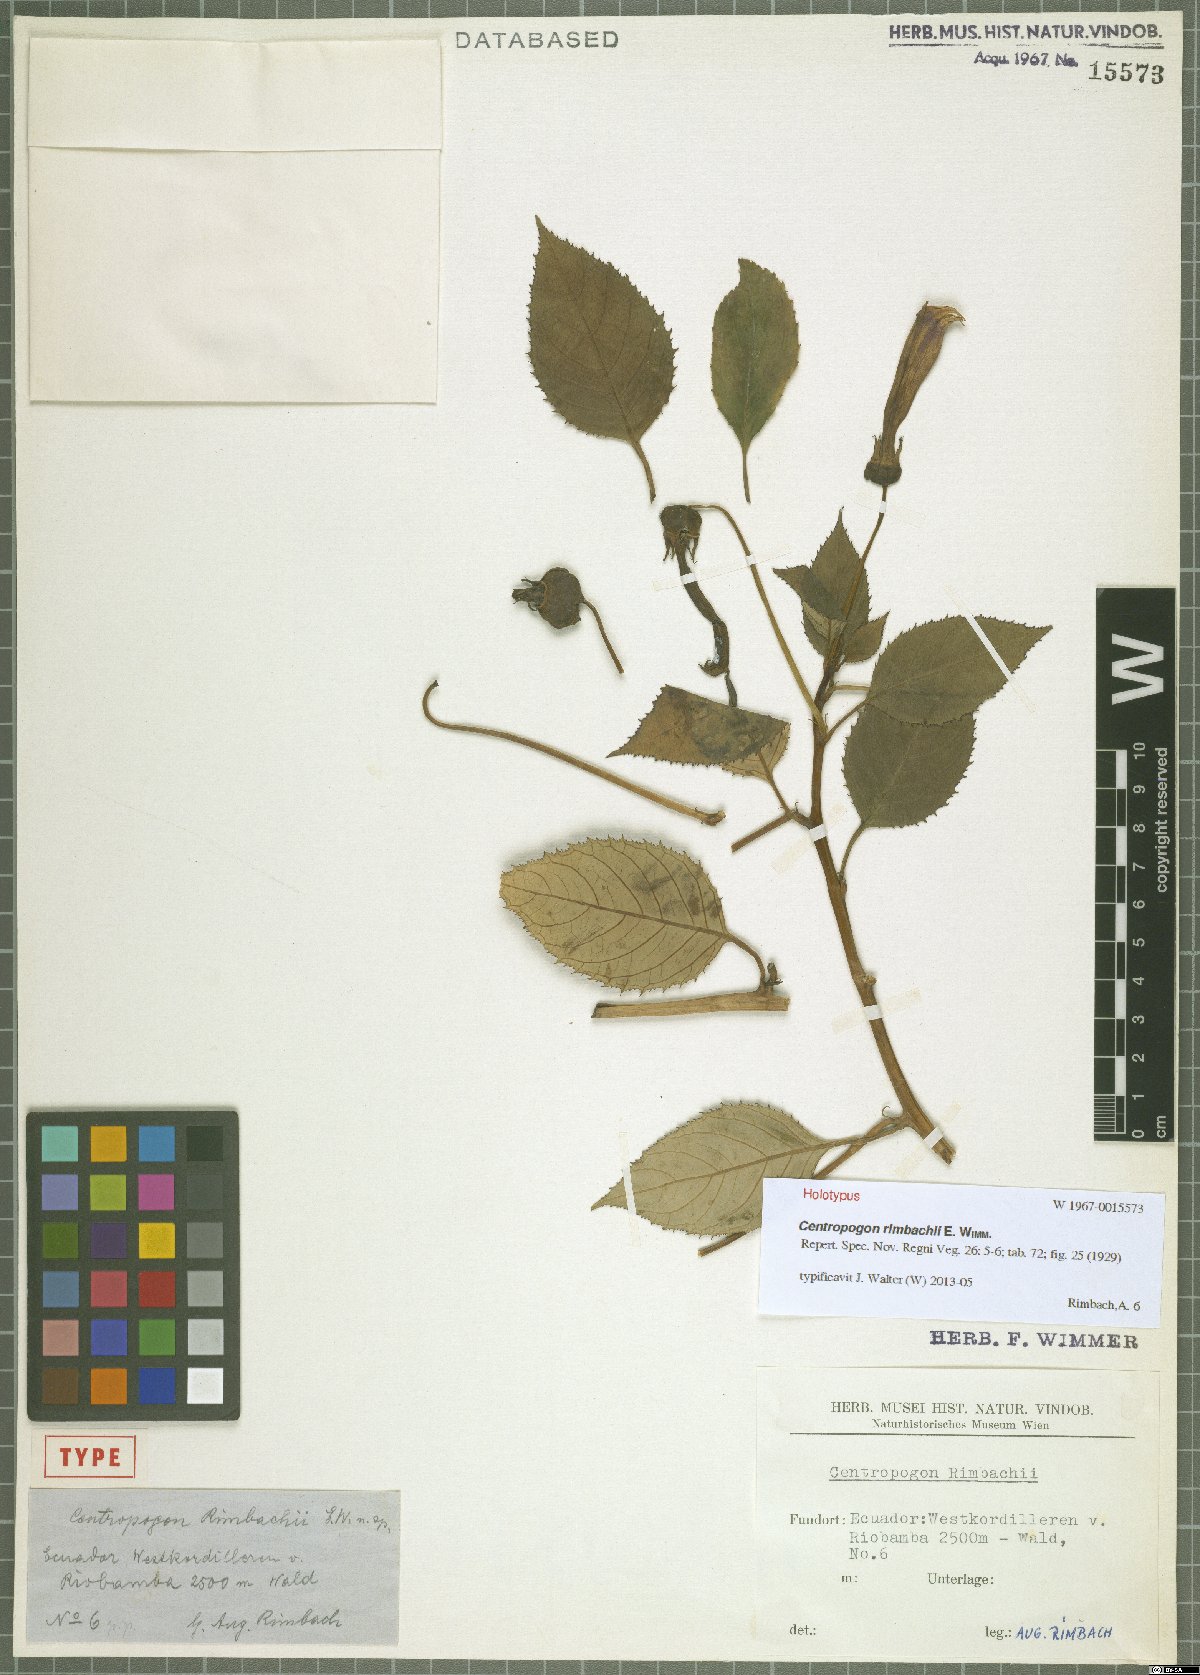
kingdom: Plantae
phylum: Tracheophyta
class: Magnoliopsida
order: Asterales
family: Campanulaceae
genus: Centropogon
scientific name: Centropogon rimbachii
